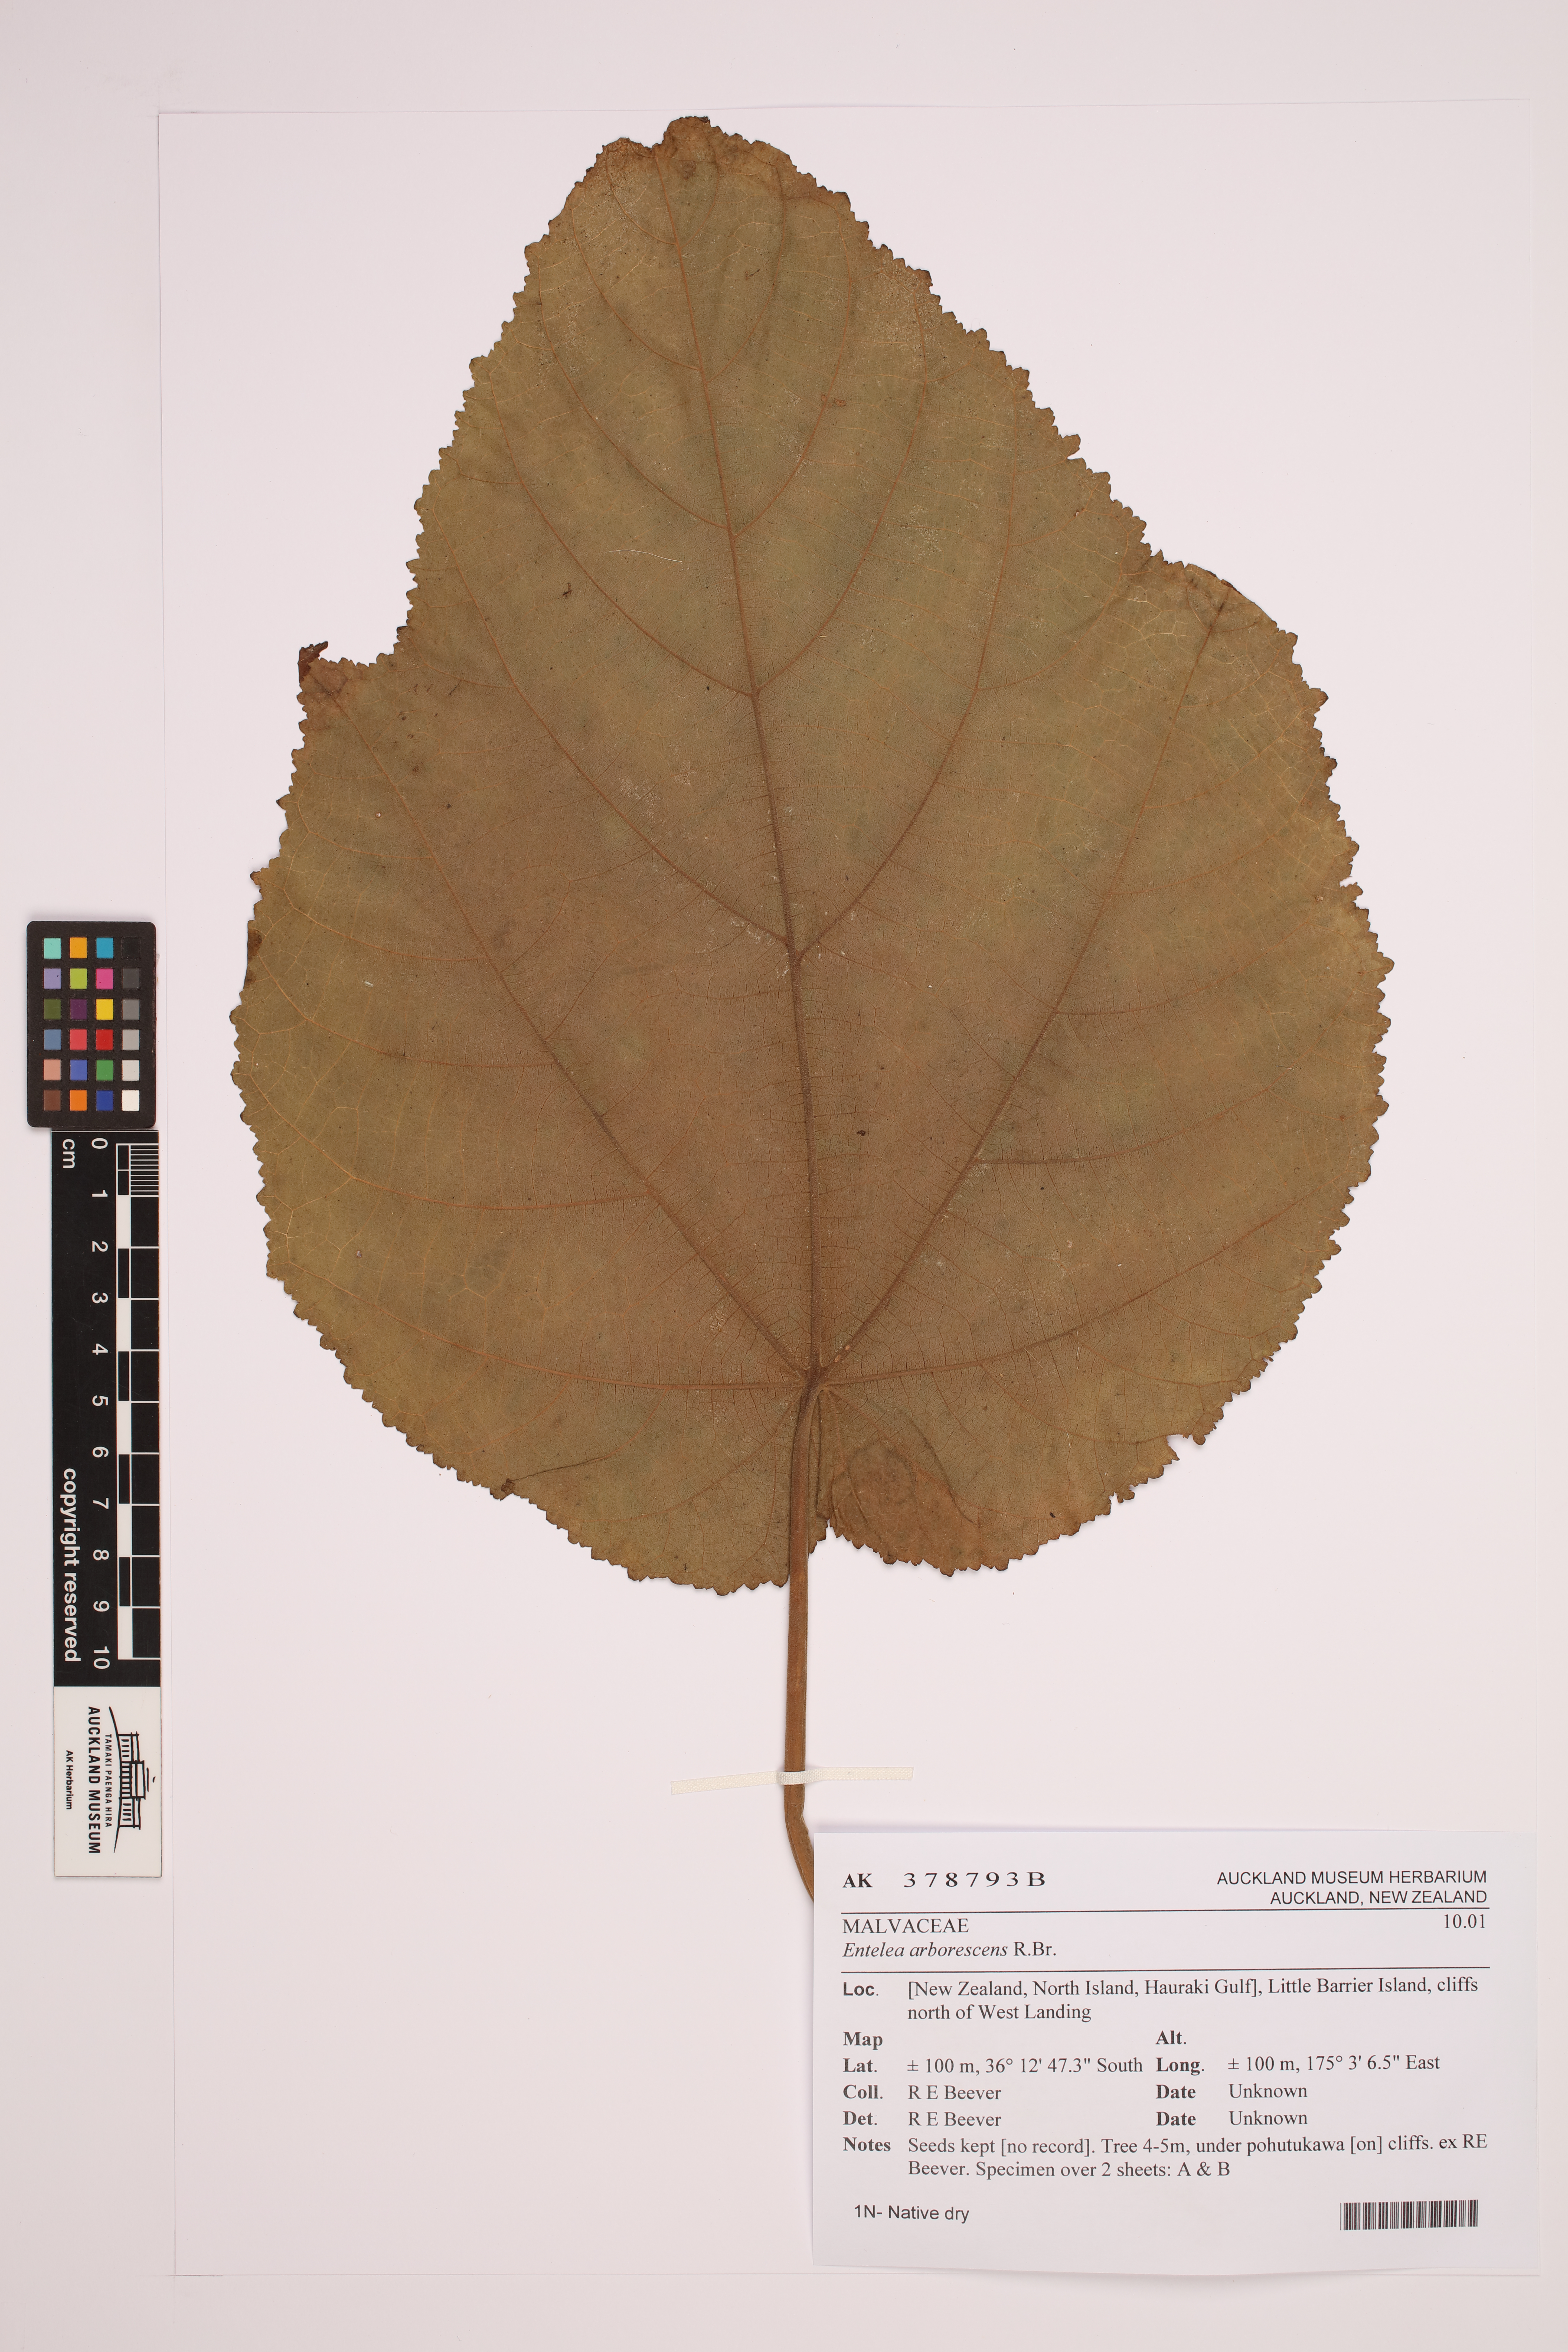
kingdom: Plantae
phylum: Tracheophyta
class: Magnoliopsida
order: Malvales
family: Malvaceae
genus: Entelea
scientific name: Entelea arborescens
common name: New zealand-mulberry
